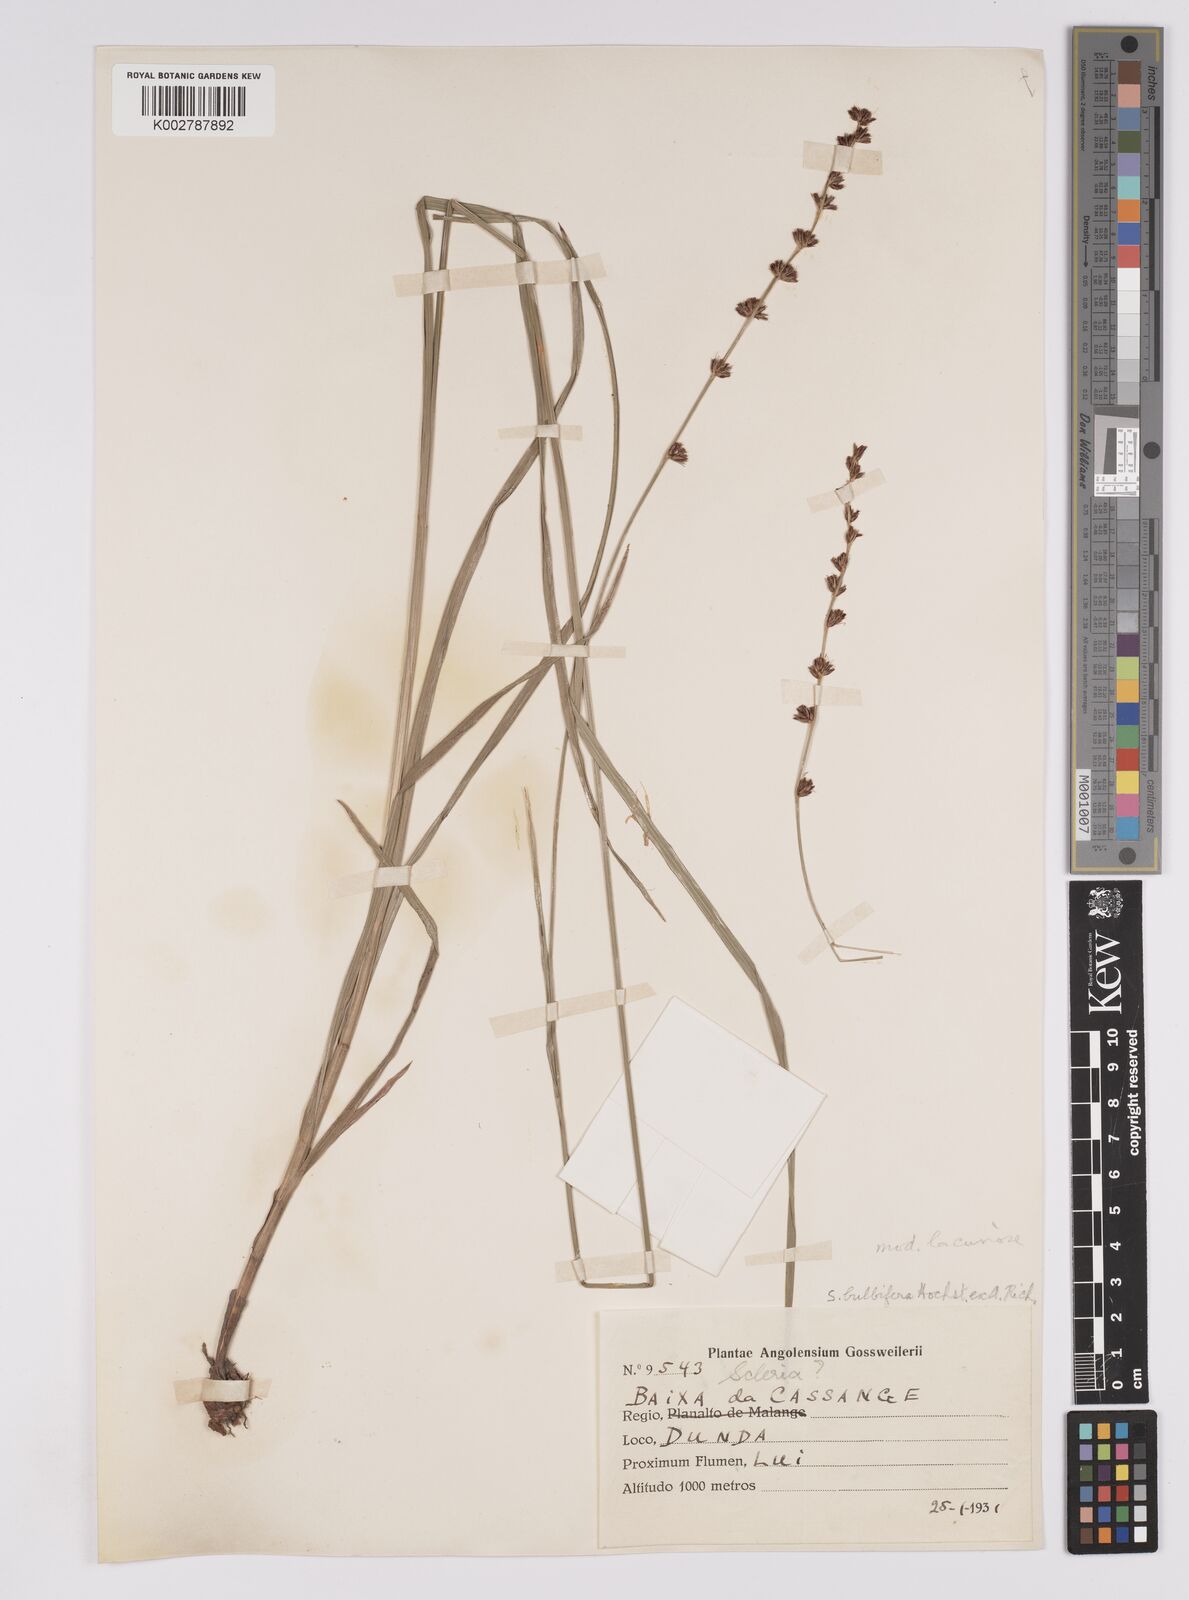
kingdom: Plantae
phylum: Tracheophyta
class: Liliopsida
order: Poales
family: Cyperaceae
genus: Scleria
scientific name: Scleria bulbifera
